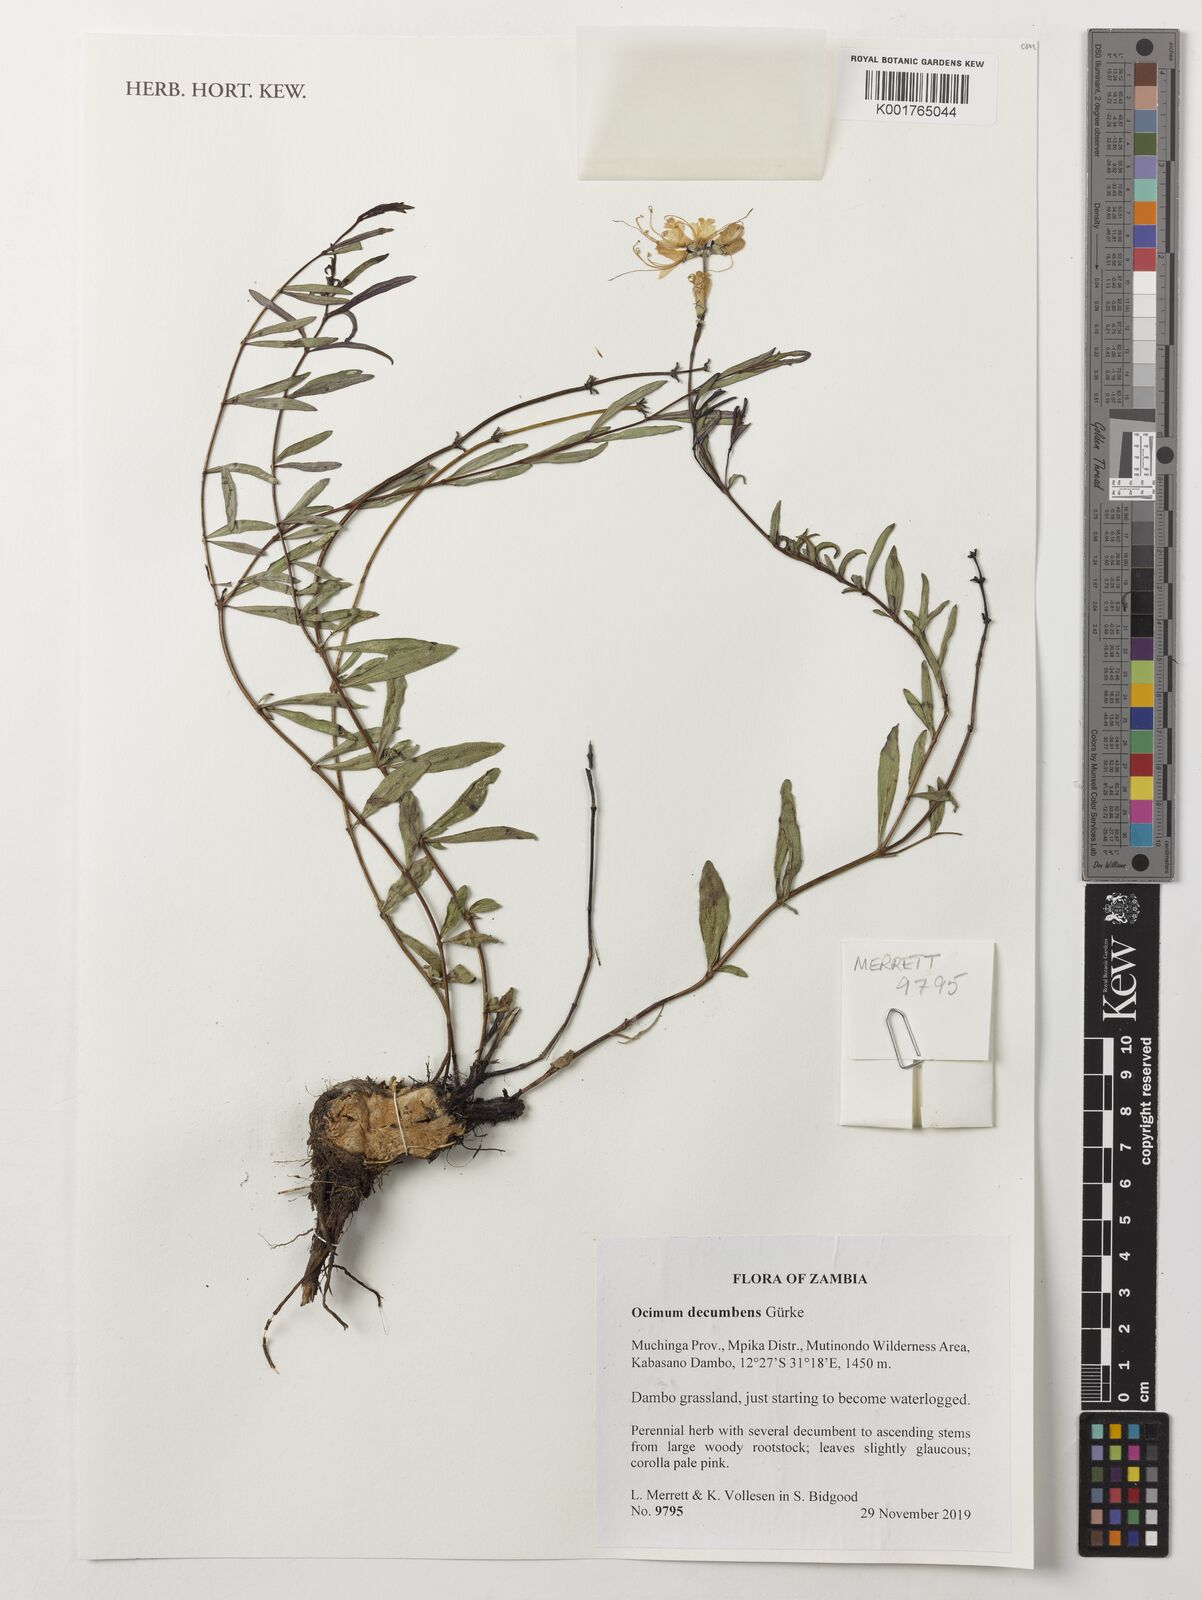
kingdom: Plantae
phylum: Tracheophyta
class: Magnoliopsida
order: Lamiales
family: Lamiaceae
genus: Ocimum
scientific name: Ocimum decumbens
